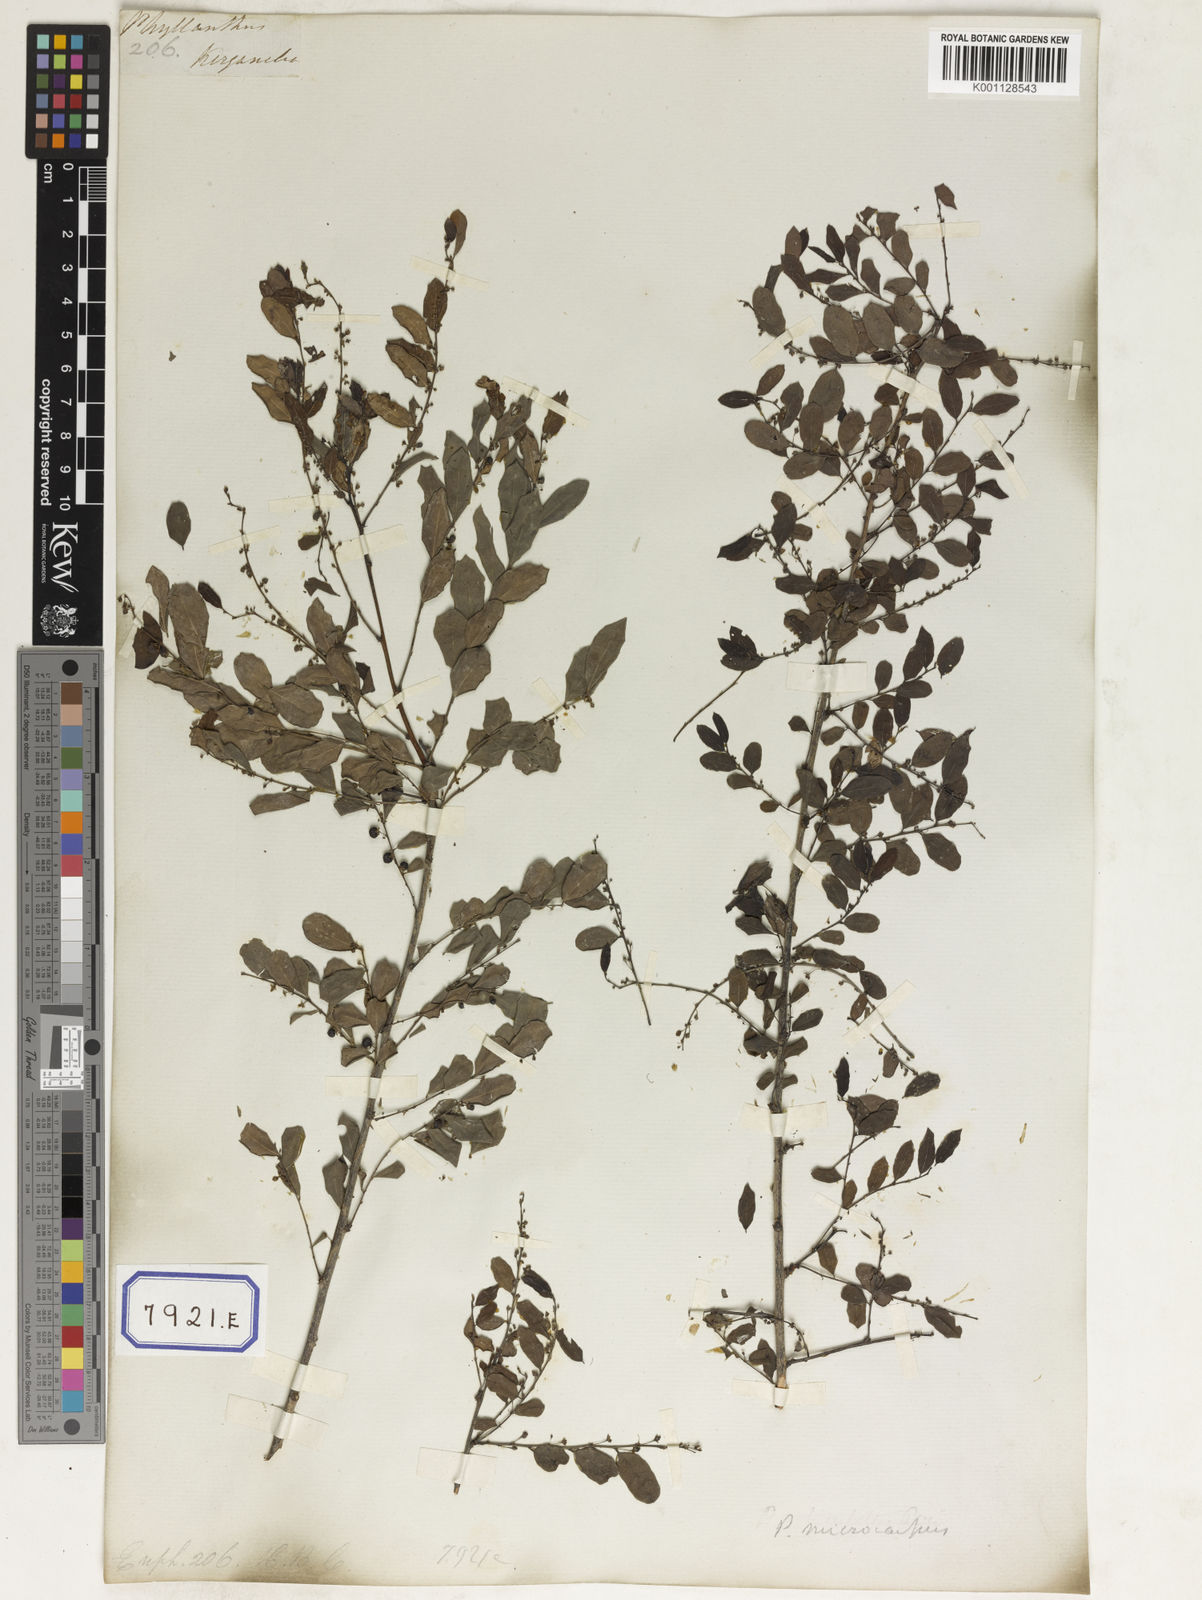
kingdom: Plantae
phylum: Tracheophyta
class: Magnoliopsida
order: Malpighiales
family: Euphorbiaceae
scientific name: Euphorbiaceae
